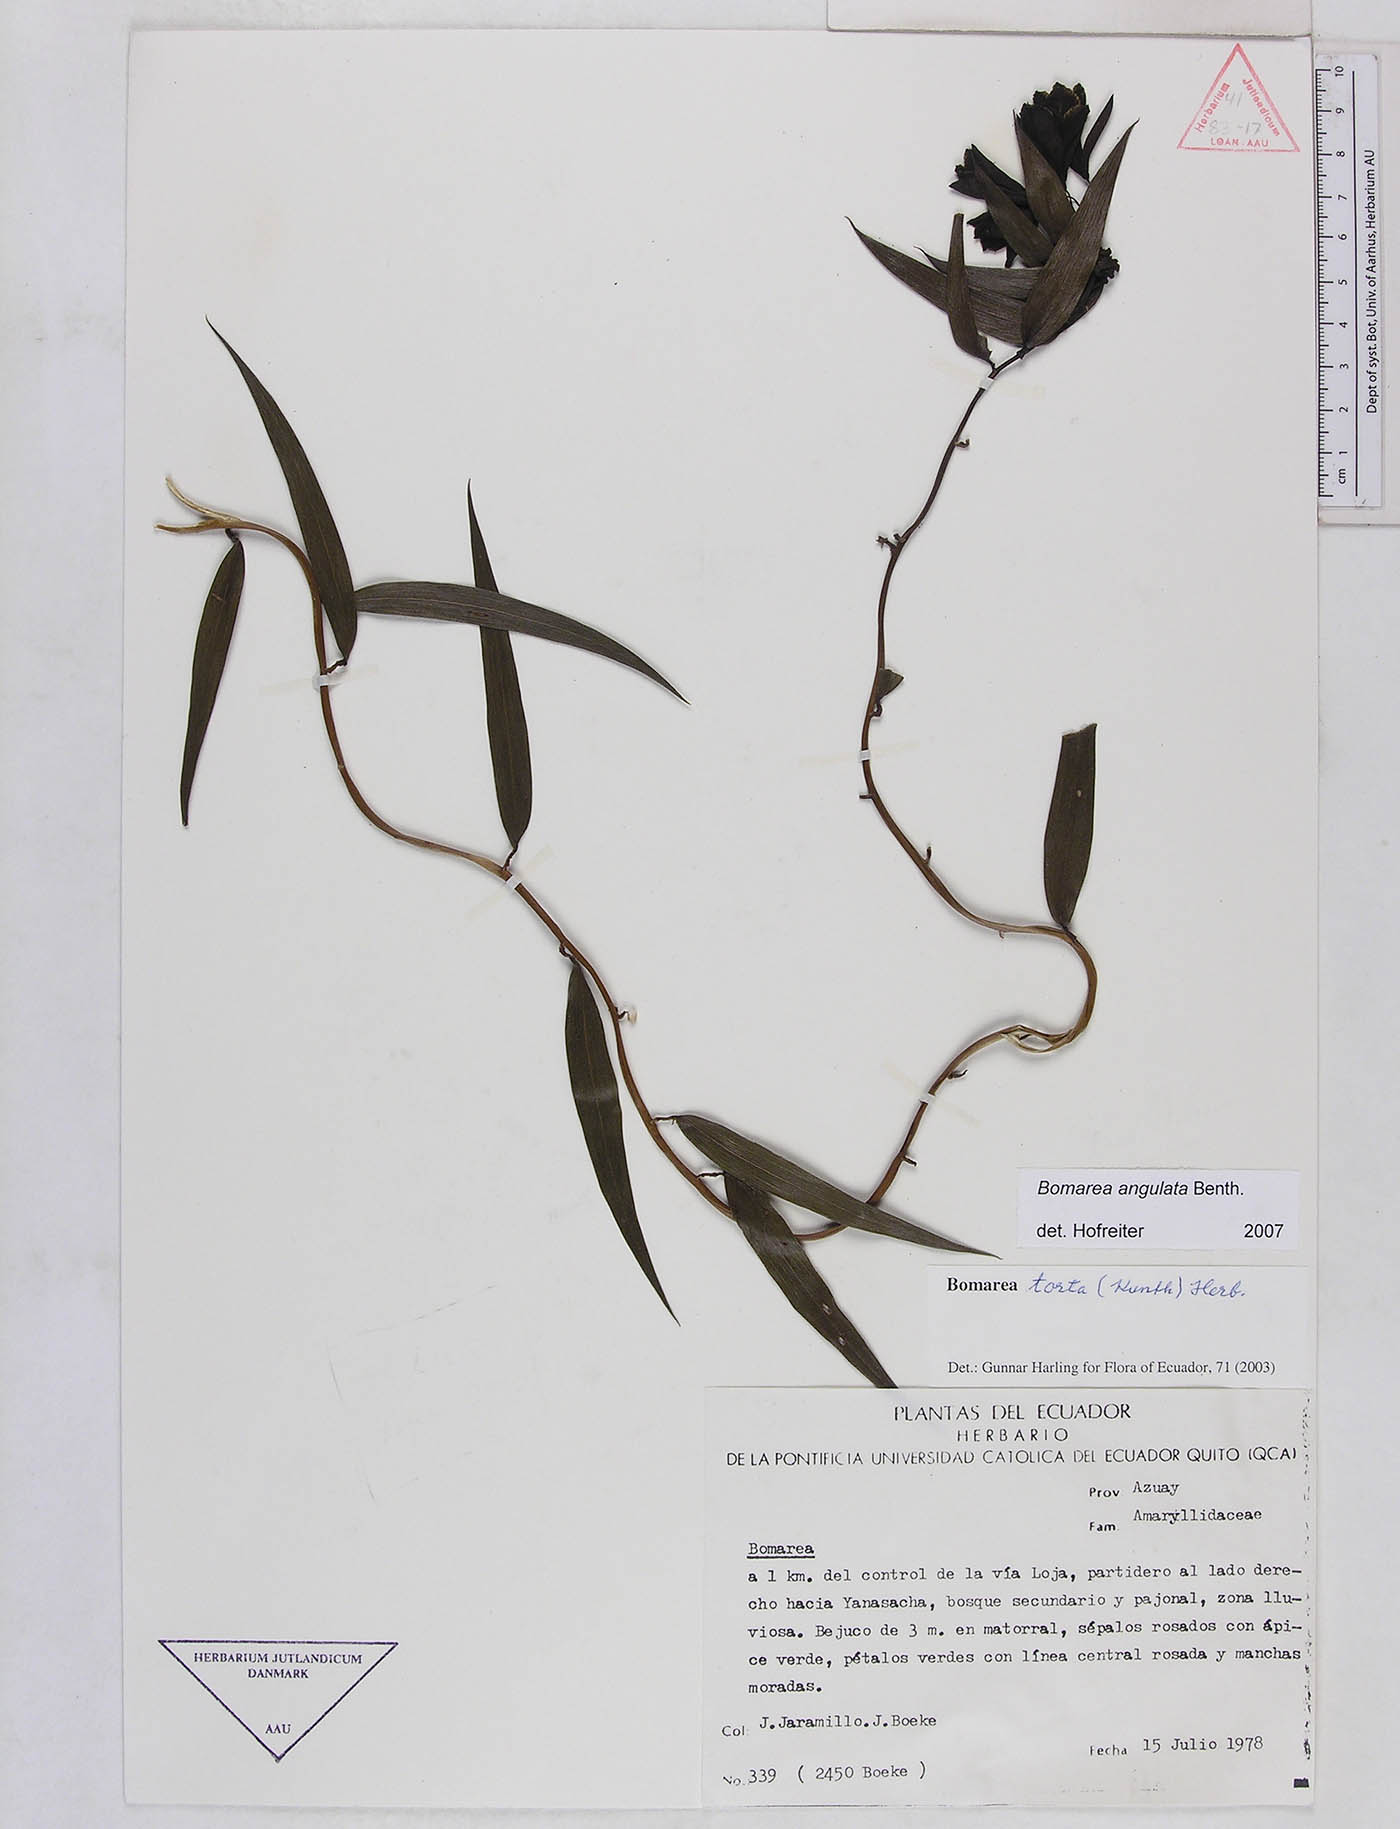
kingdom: Plantae
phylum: Tracheophyta
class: Liliopsida
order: Liliales
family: Alstroemeriaceae
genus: Bomarea
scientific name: Bomarea angulata
